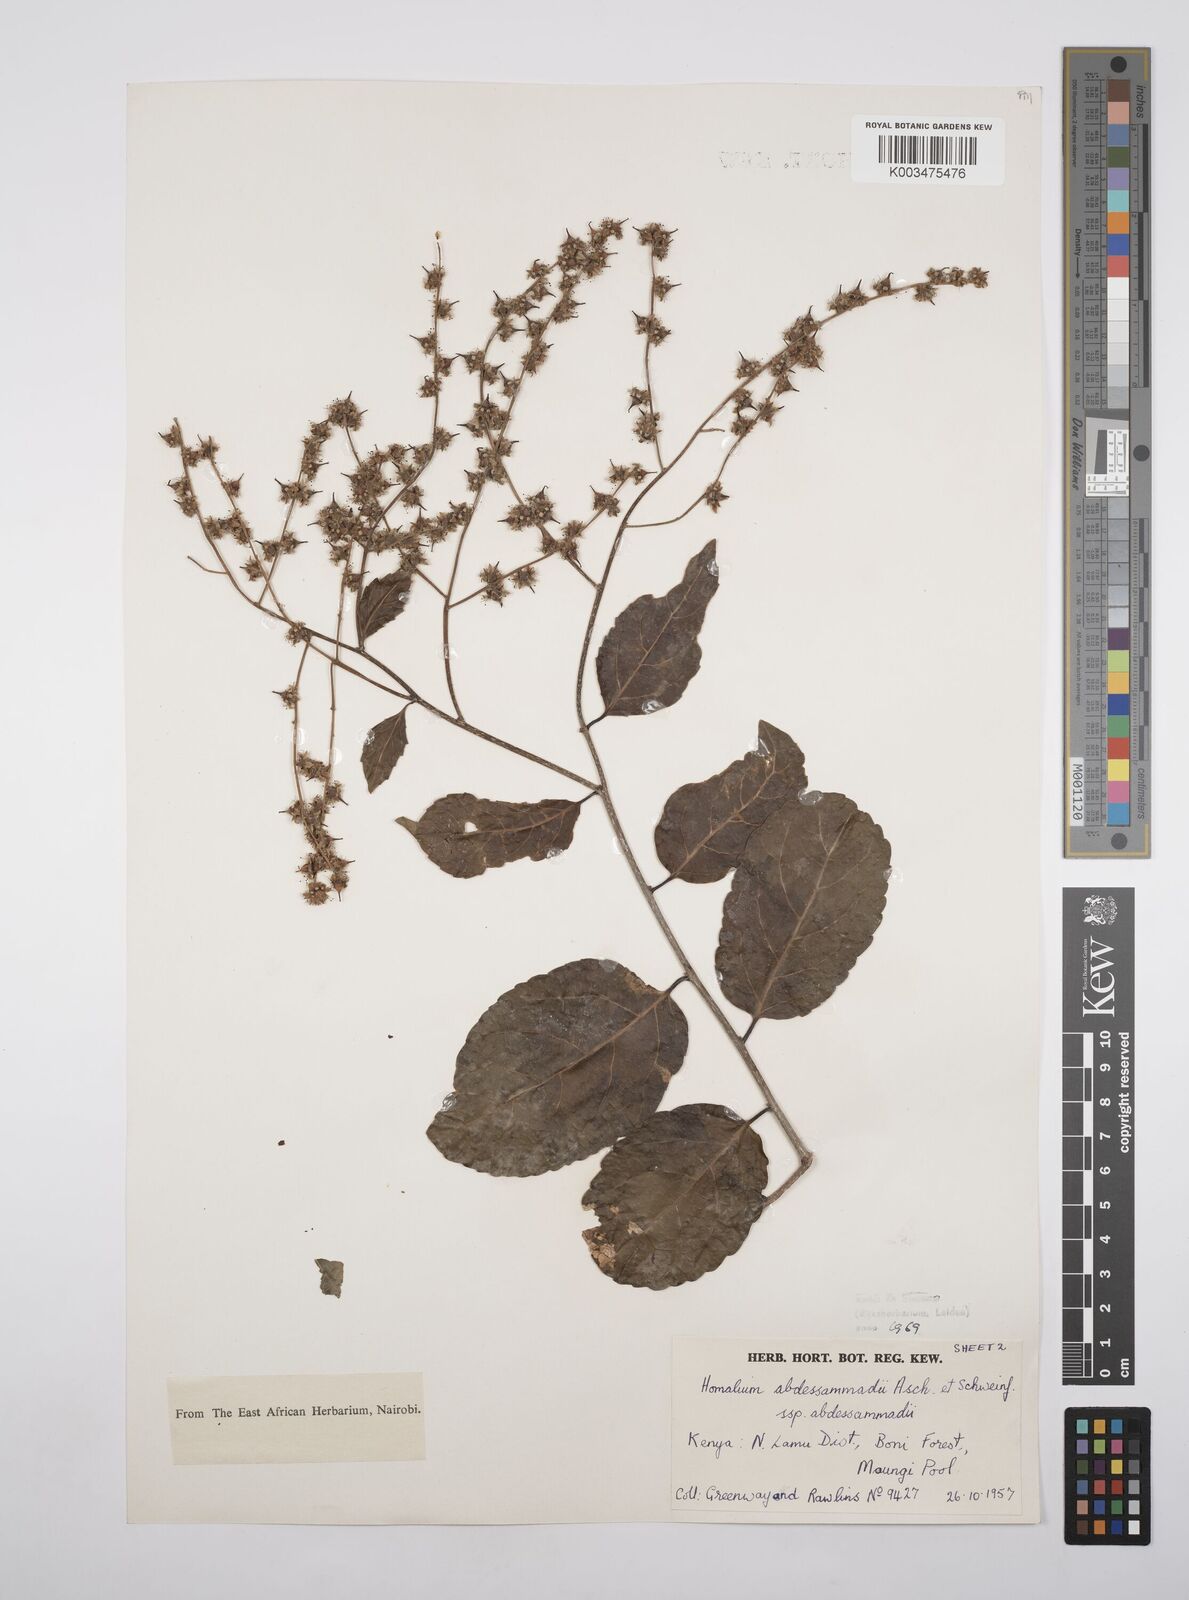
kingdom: Plantae
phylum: Tracheophyta
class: Magnoliopsida
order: Malpighiales
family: Salicaceae
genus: Homalium
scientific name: Homalium abdessammadii
